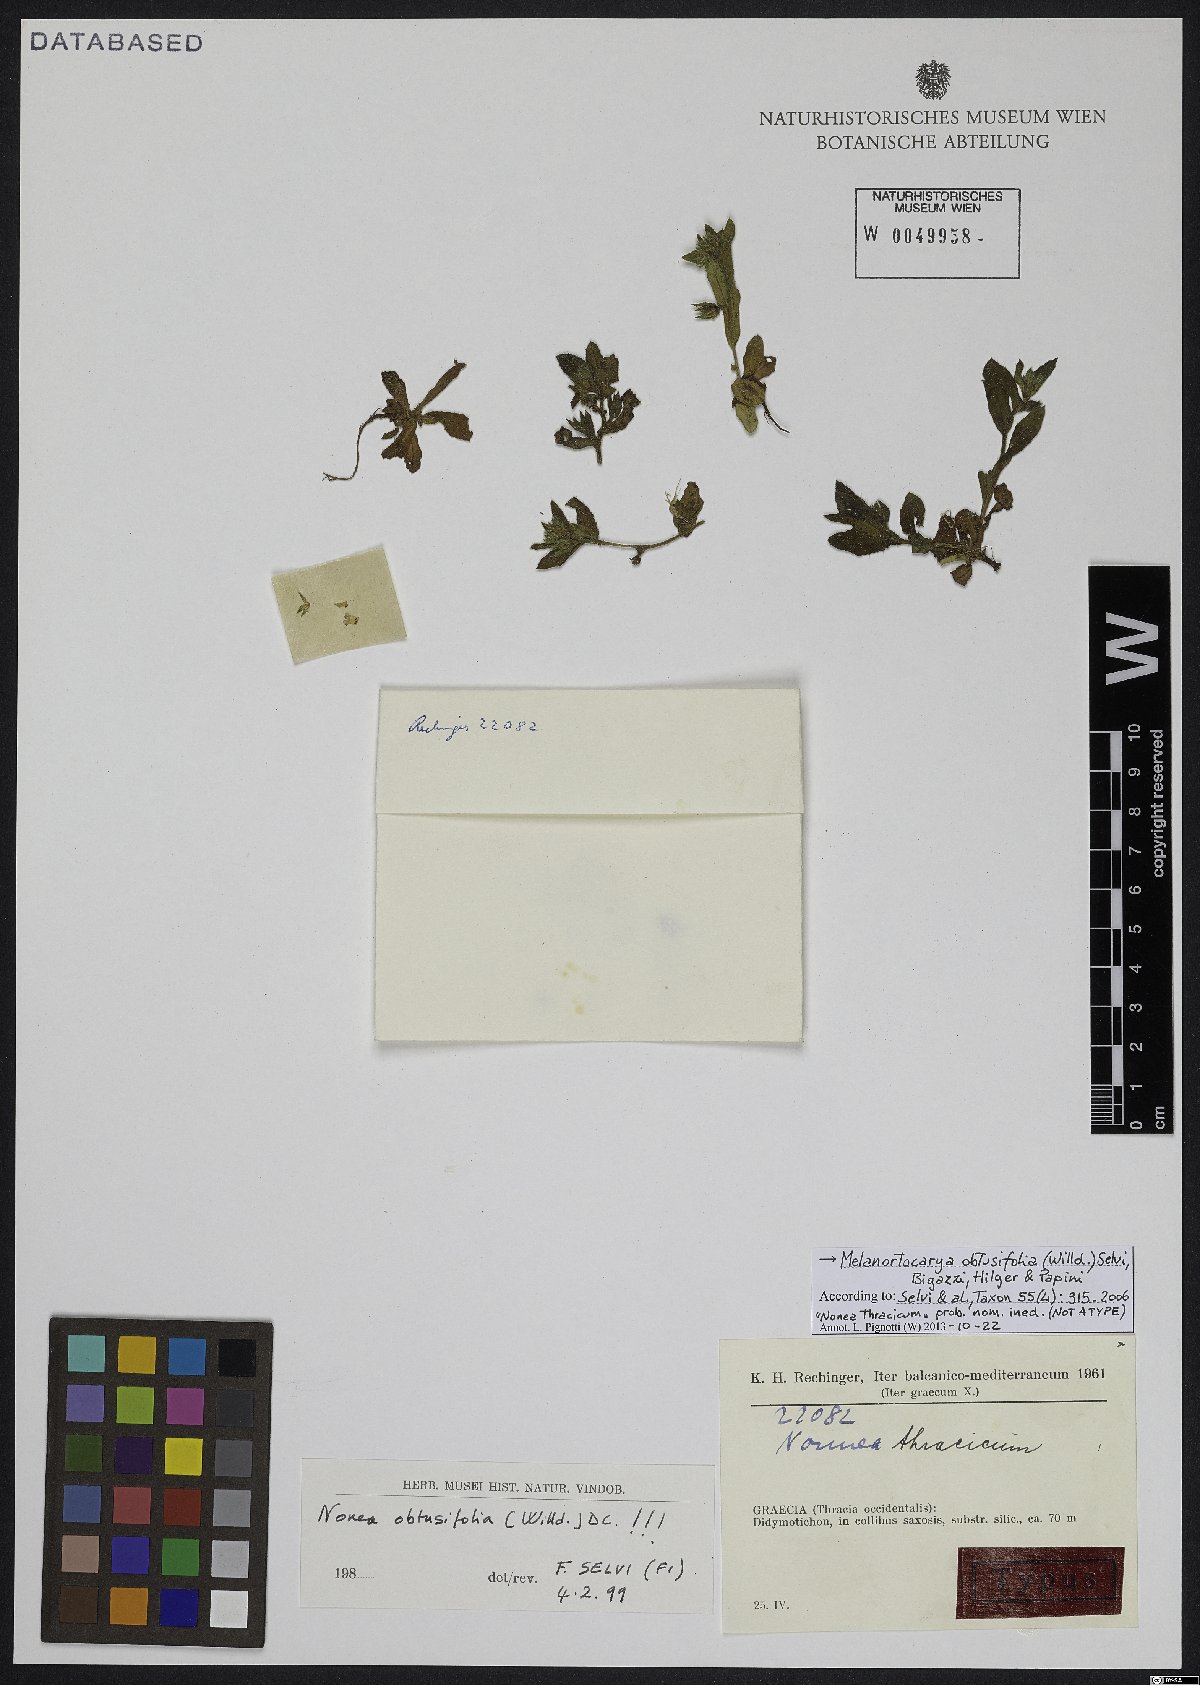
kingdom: Plantae
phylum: Tracheophyta
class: Magnoliopsida
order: Boraginales
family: Boraginaceae
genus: Melanortocarya
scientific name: Melanortocarya obtusifolia
